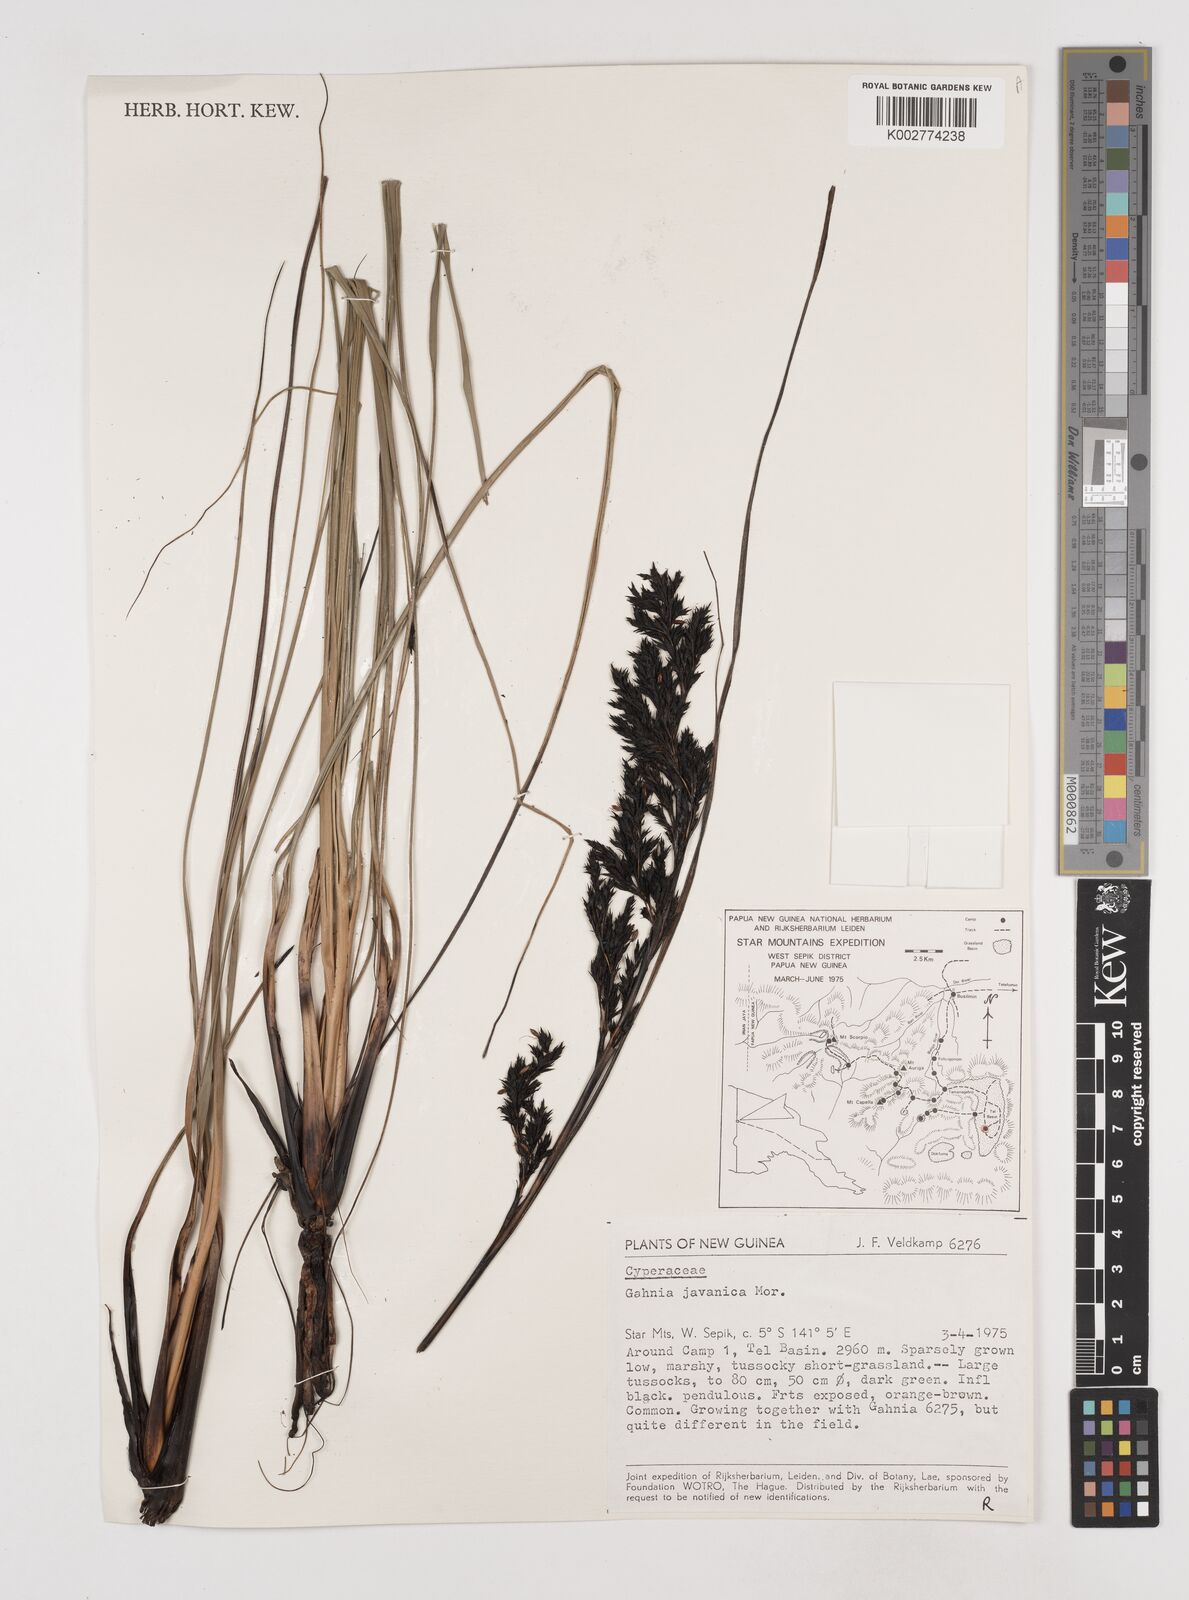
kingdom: Plantae
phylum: Tracheophyta
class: Liliopsida
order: Poales
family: Cyperaceae
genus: Gahnia
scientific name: Gahnia javanica
